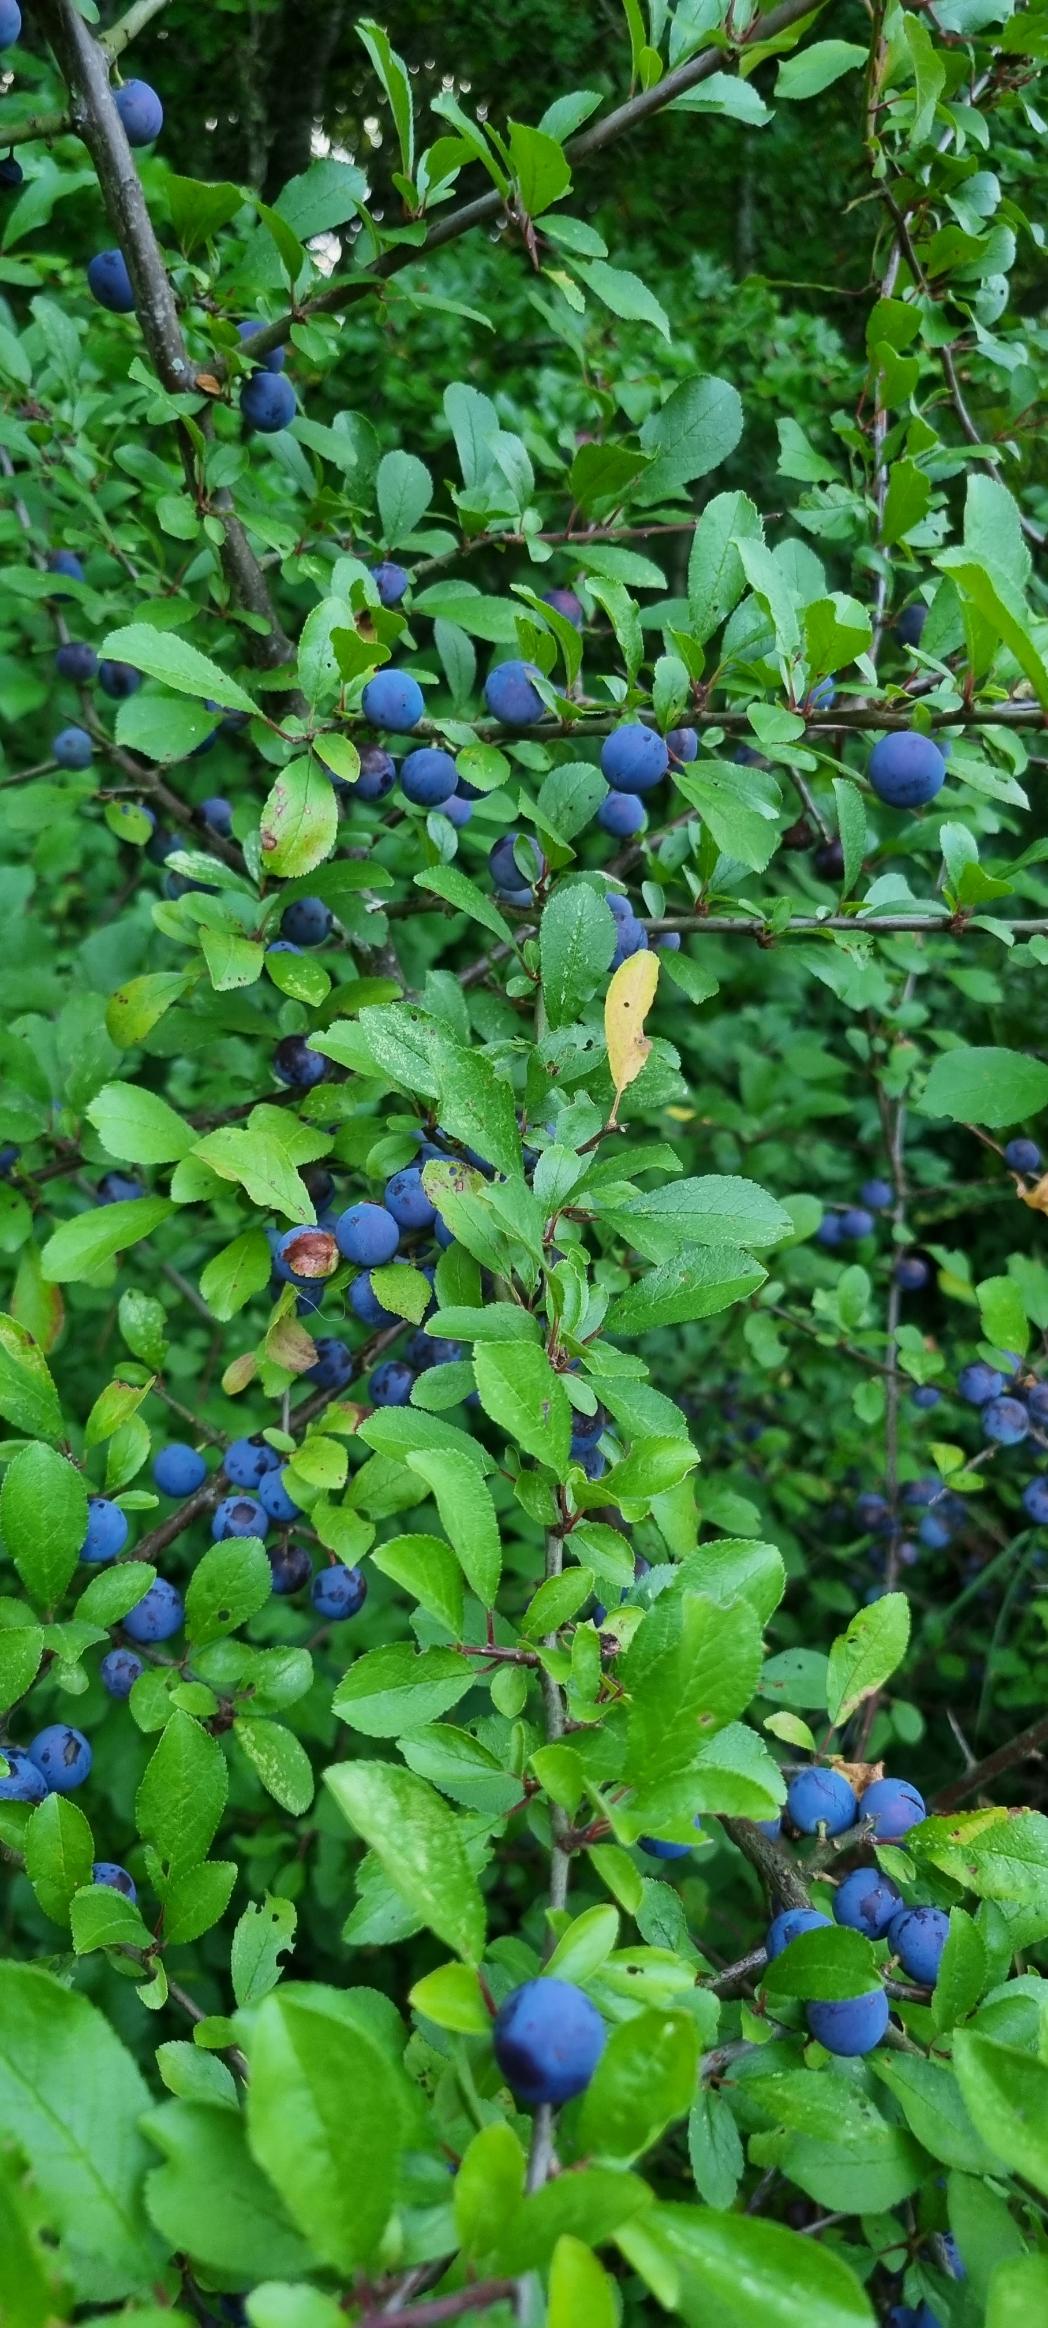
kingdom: Plantae
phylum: Tracheophyta
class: Magnoliopsida
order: Rosales
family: Rosaceae
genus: Prunus
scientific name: Prunus spinosa
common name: Slåen
